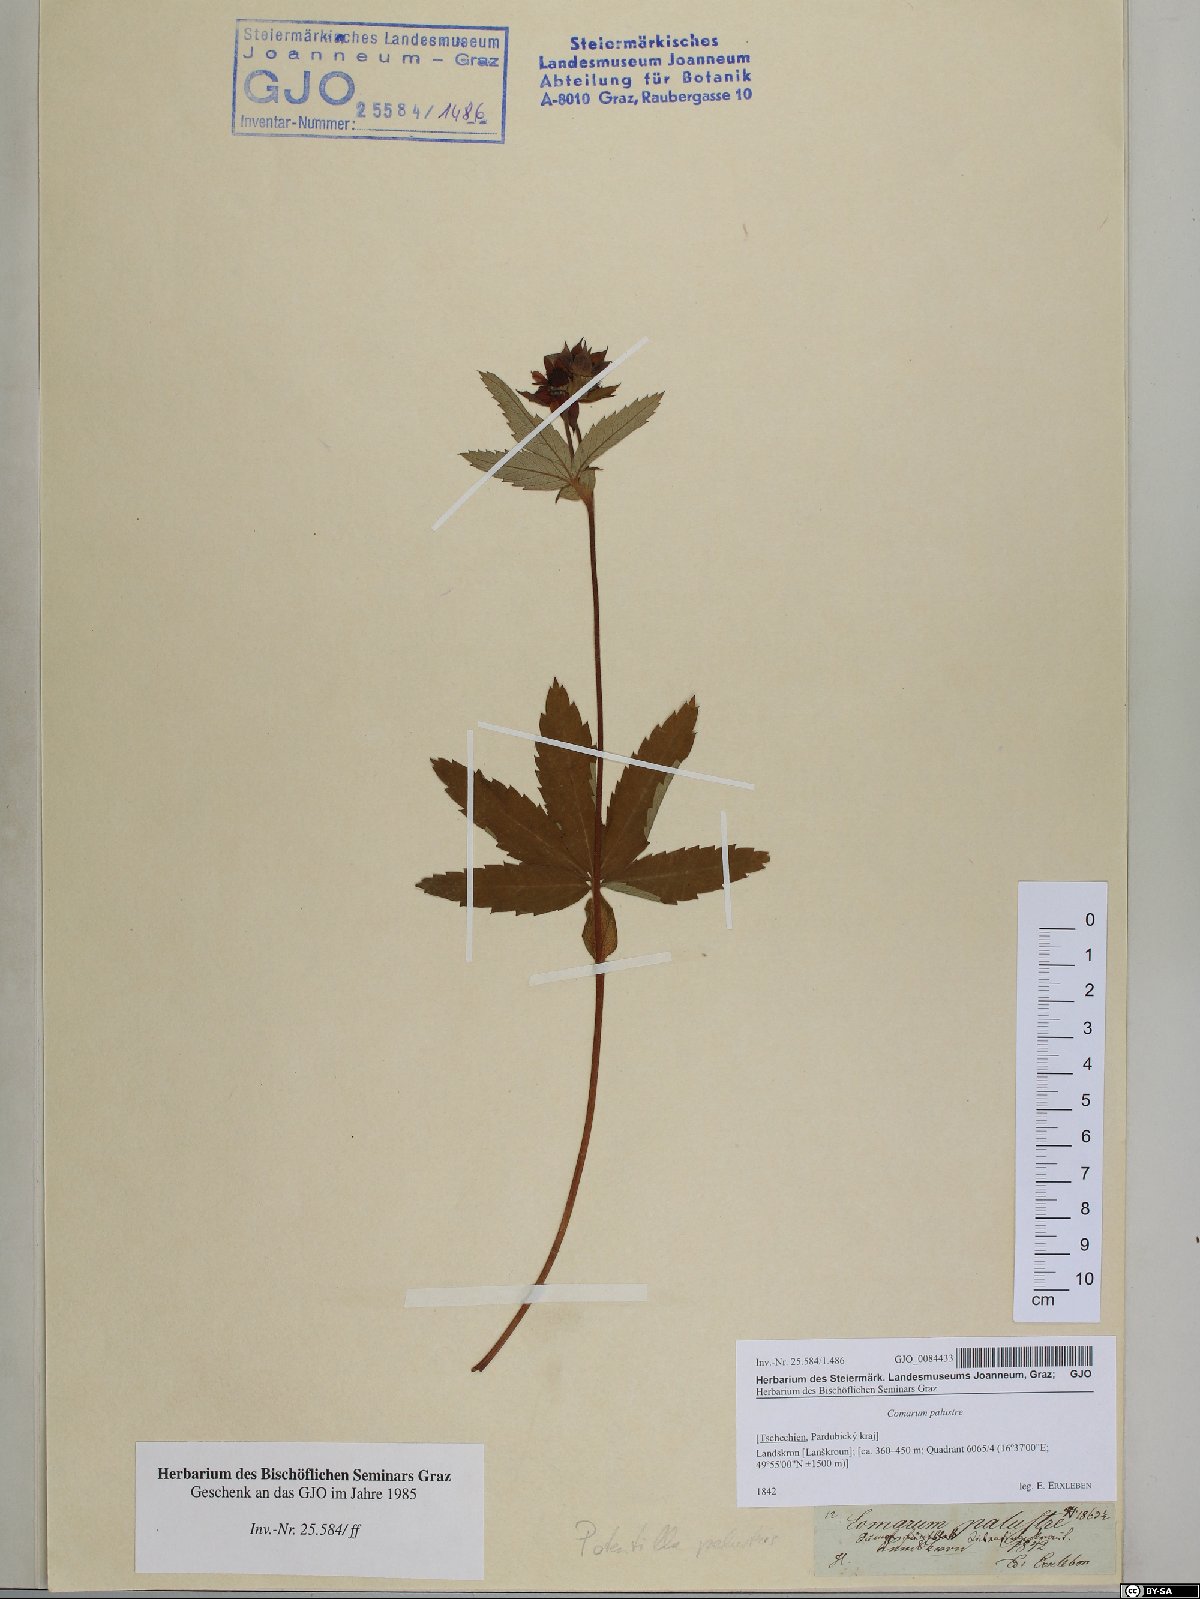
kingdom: Plantae
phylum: Tracheophyta
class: Magnoliopsida
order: Rosales
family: Rosaceae
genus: Comarum
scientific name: Comarum palustre
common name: Marsh cinquefoil
